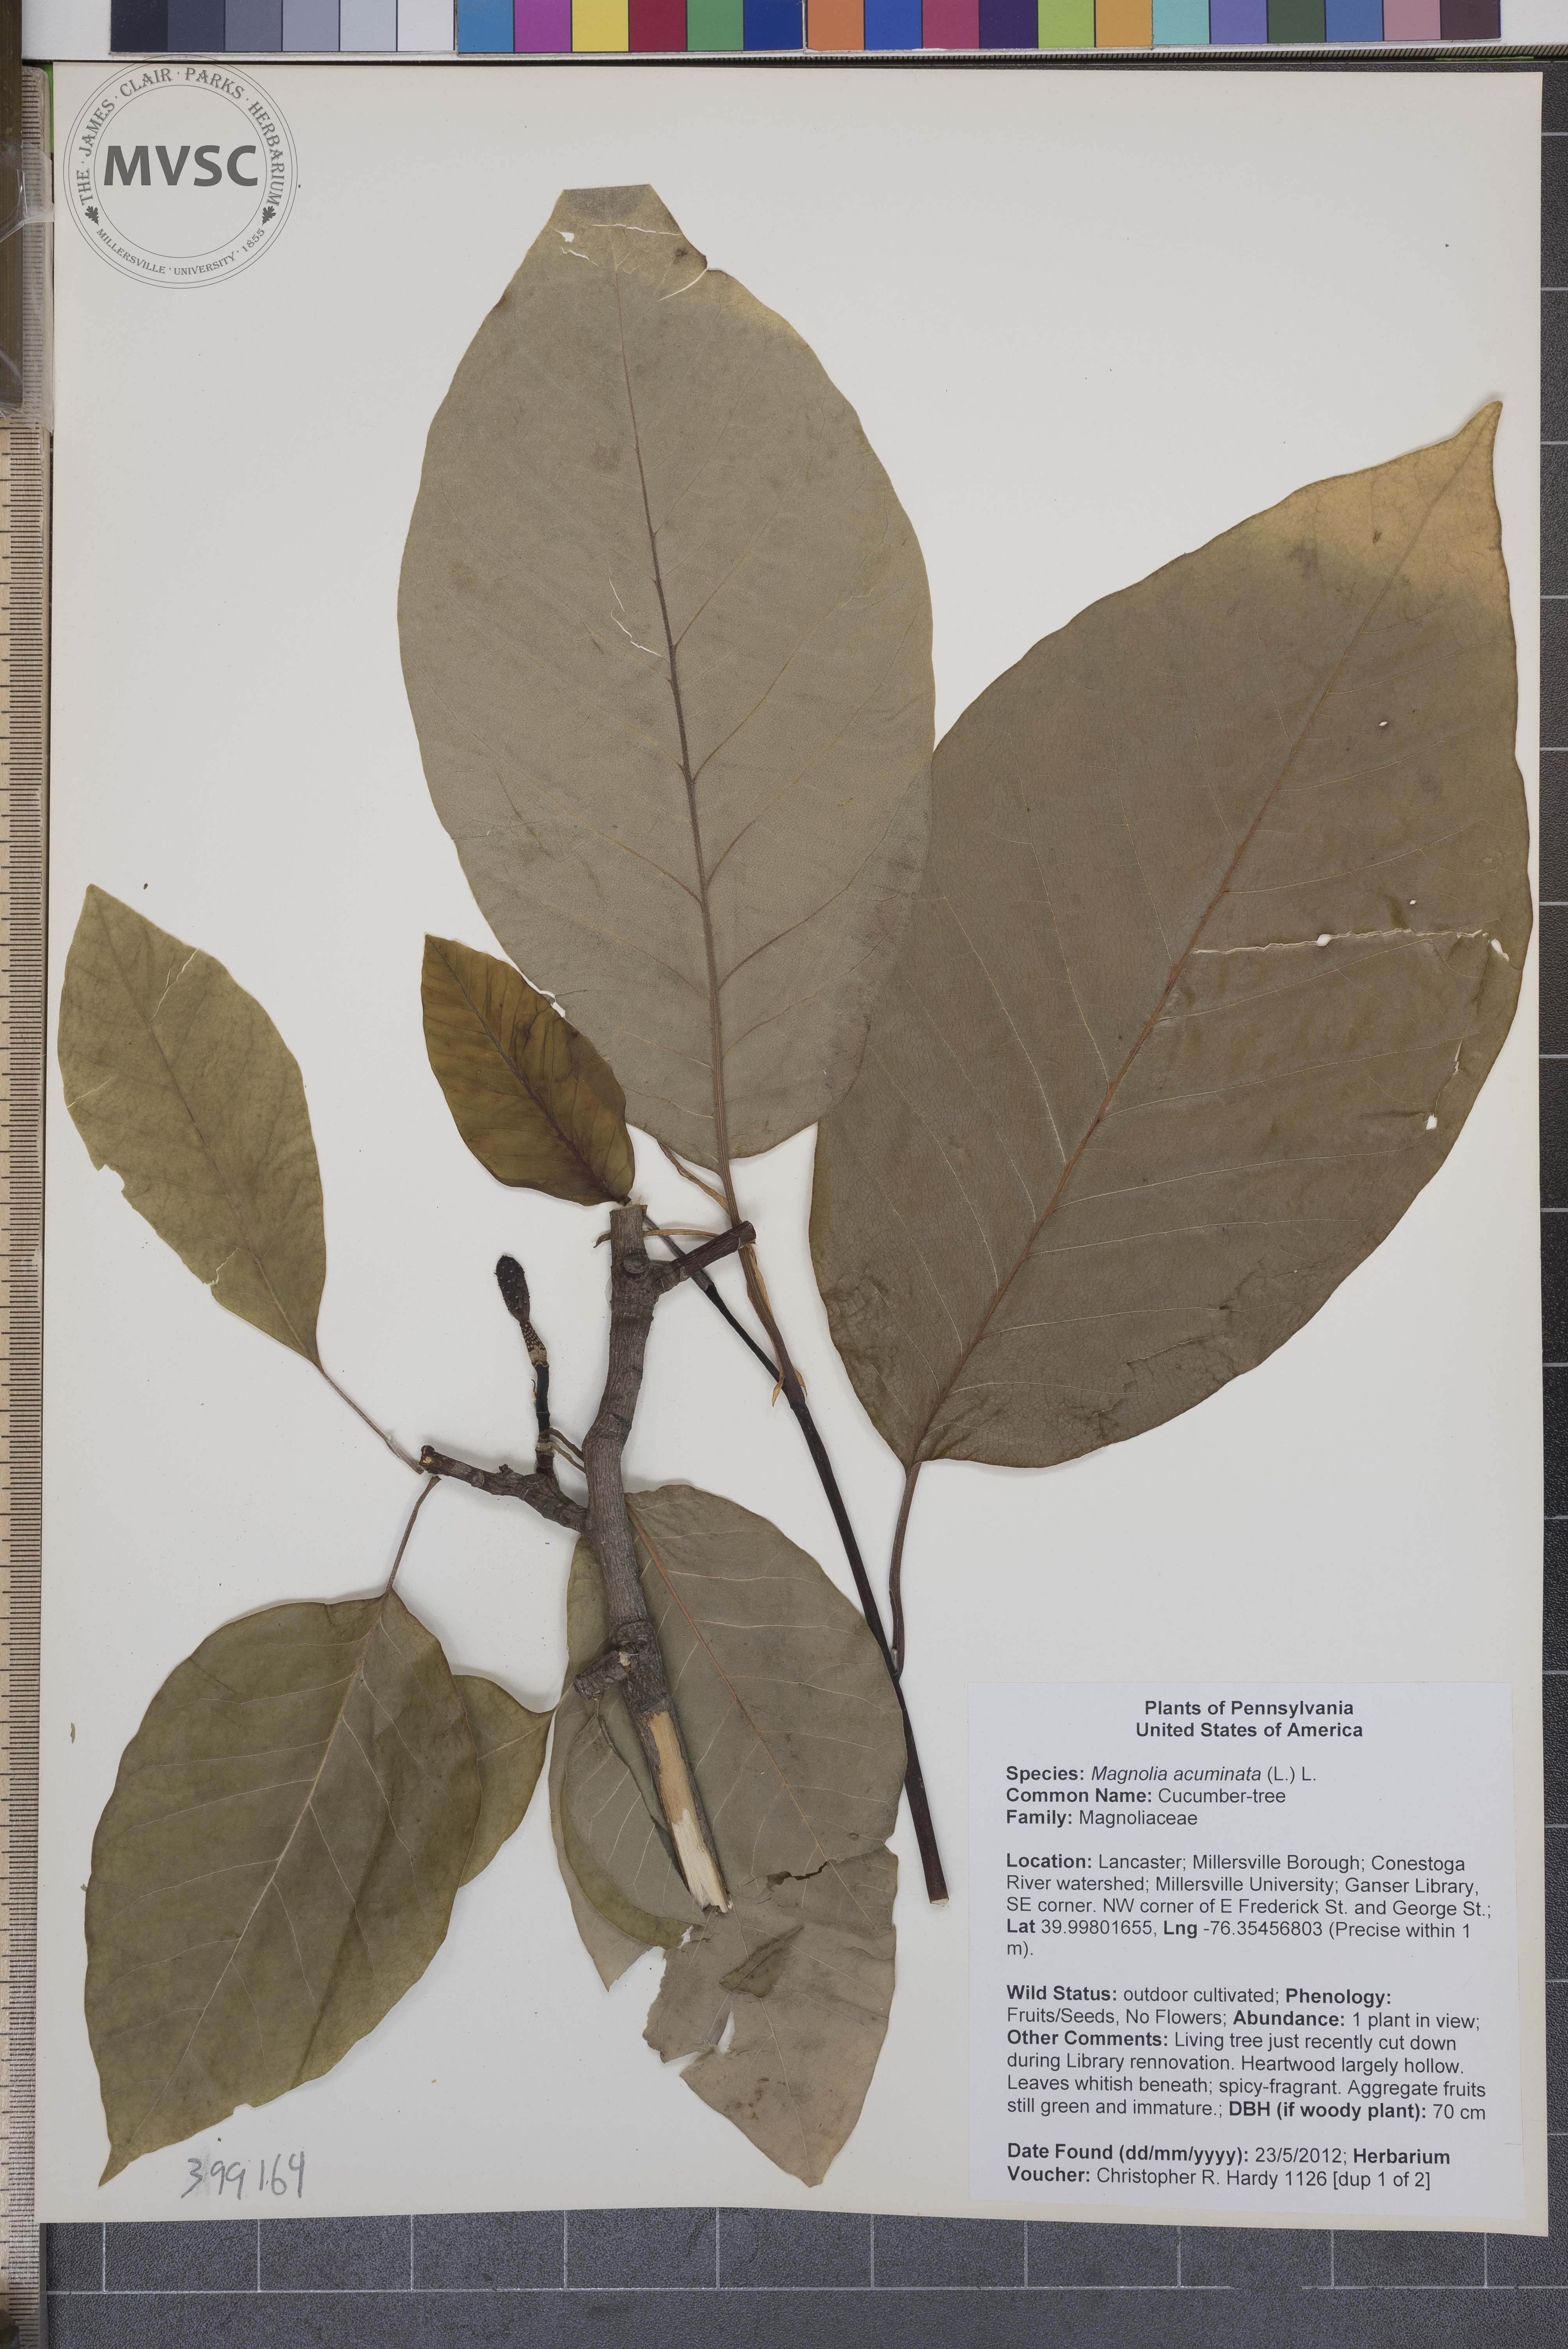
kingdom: Plantae
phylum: Tracheophyta
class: Magnoliopsida
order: Magnoliales
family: Magnoliaceae
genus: Magnolia
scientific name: Magnolia acuminata
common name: Cucumber-tree
